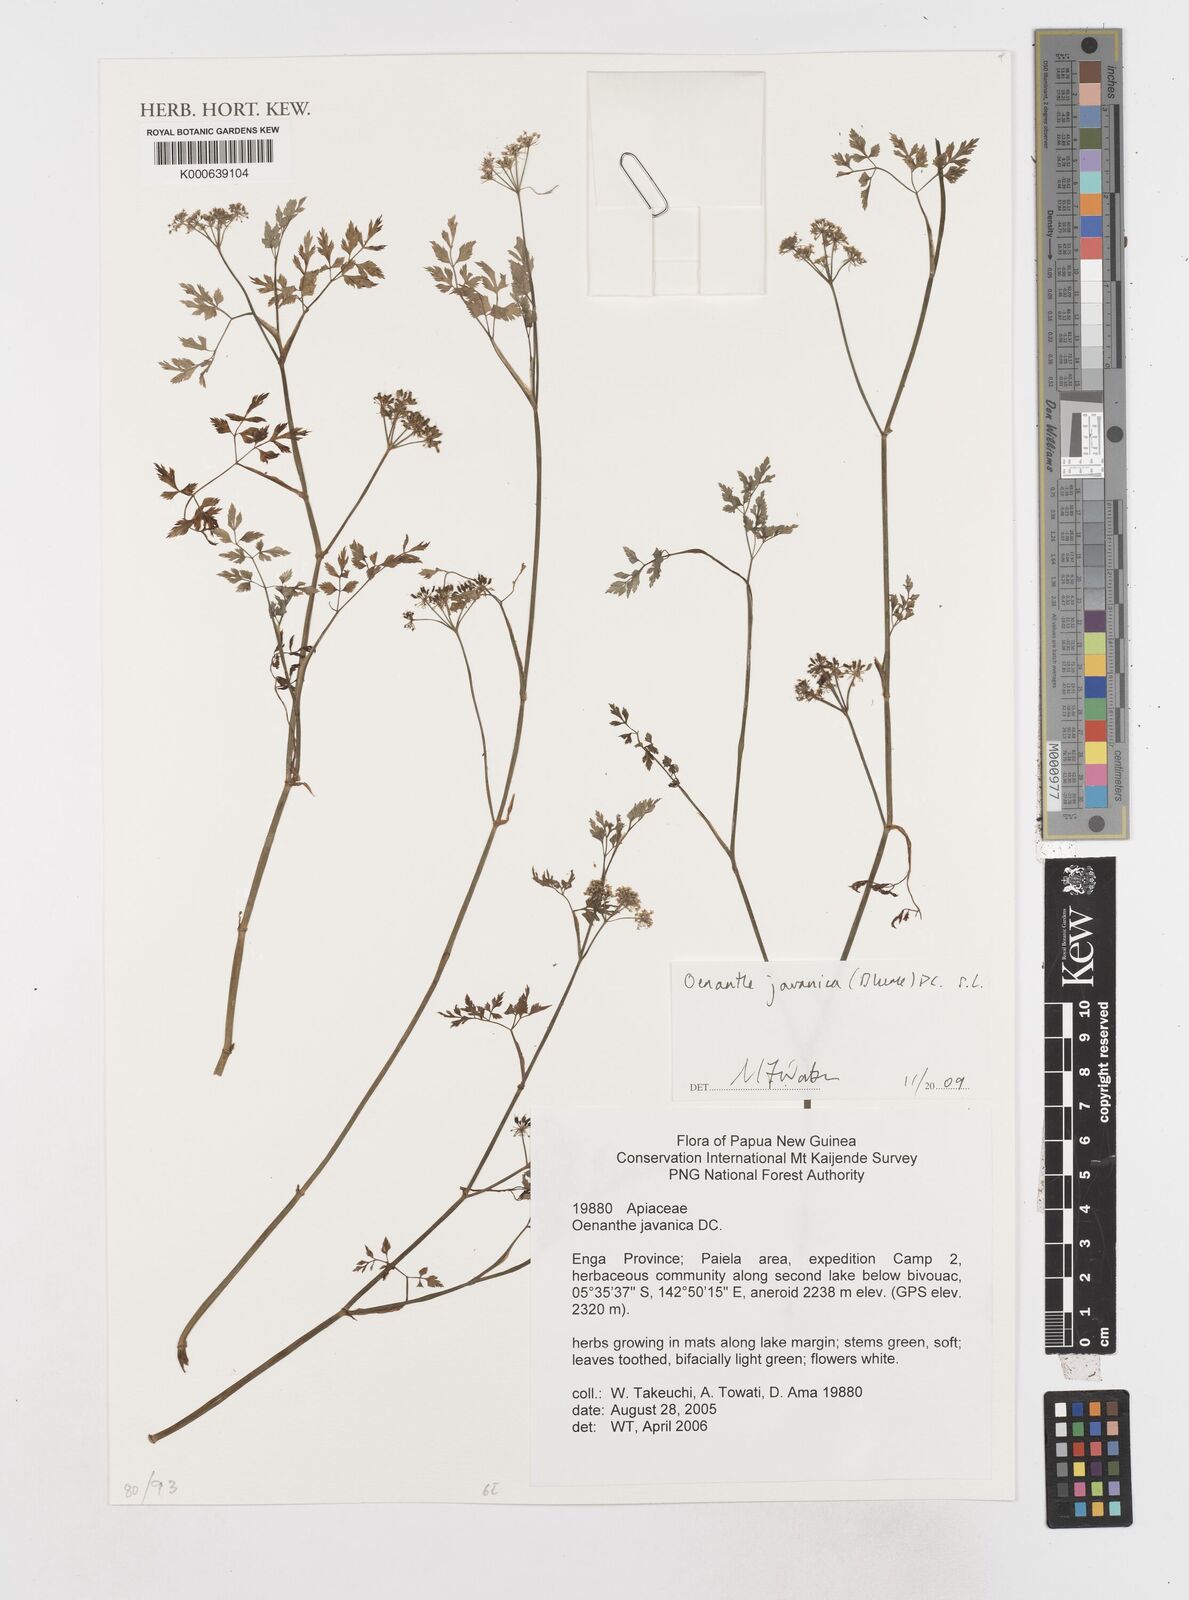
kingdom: Plantae
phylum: Tracheophyta
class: Magnoliopsida
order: Apiales
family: Apiaceae
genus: Oenanthe
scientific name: Oenanthe javanica
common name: Java water-dropwort
